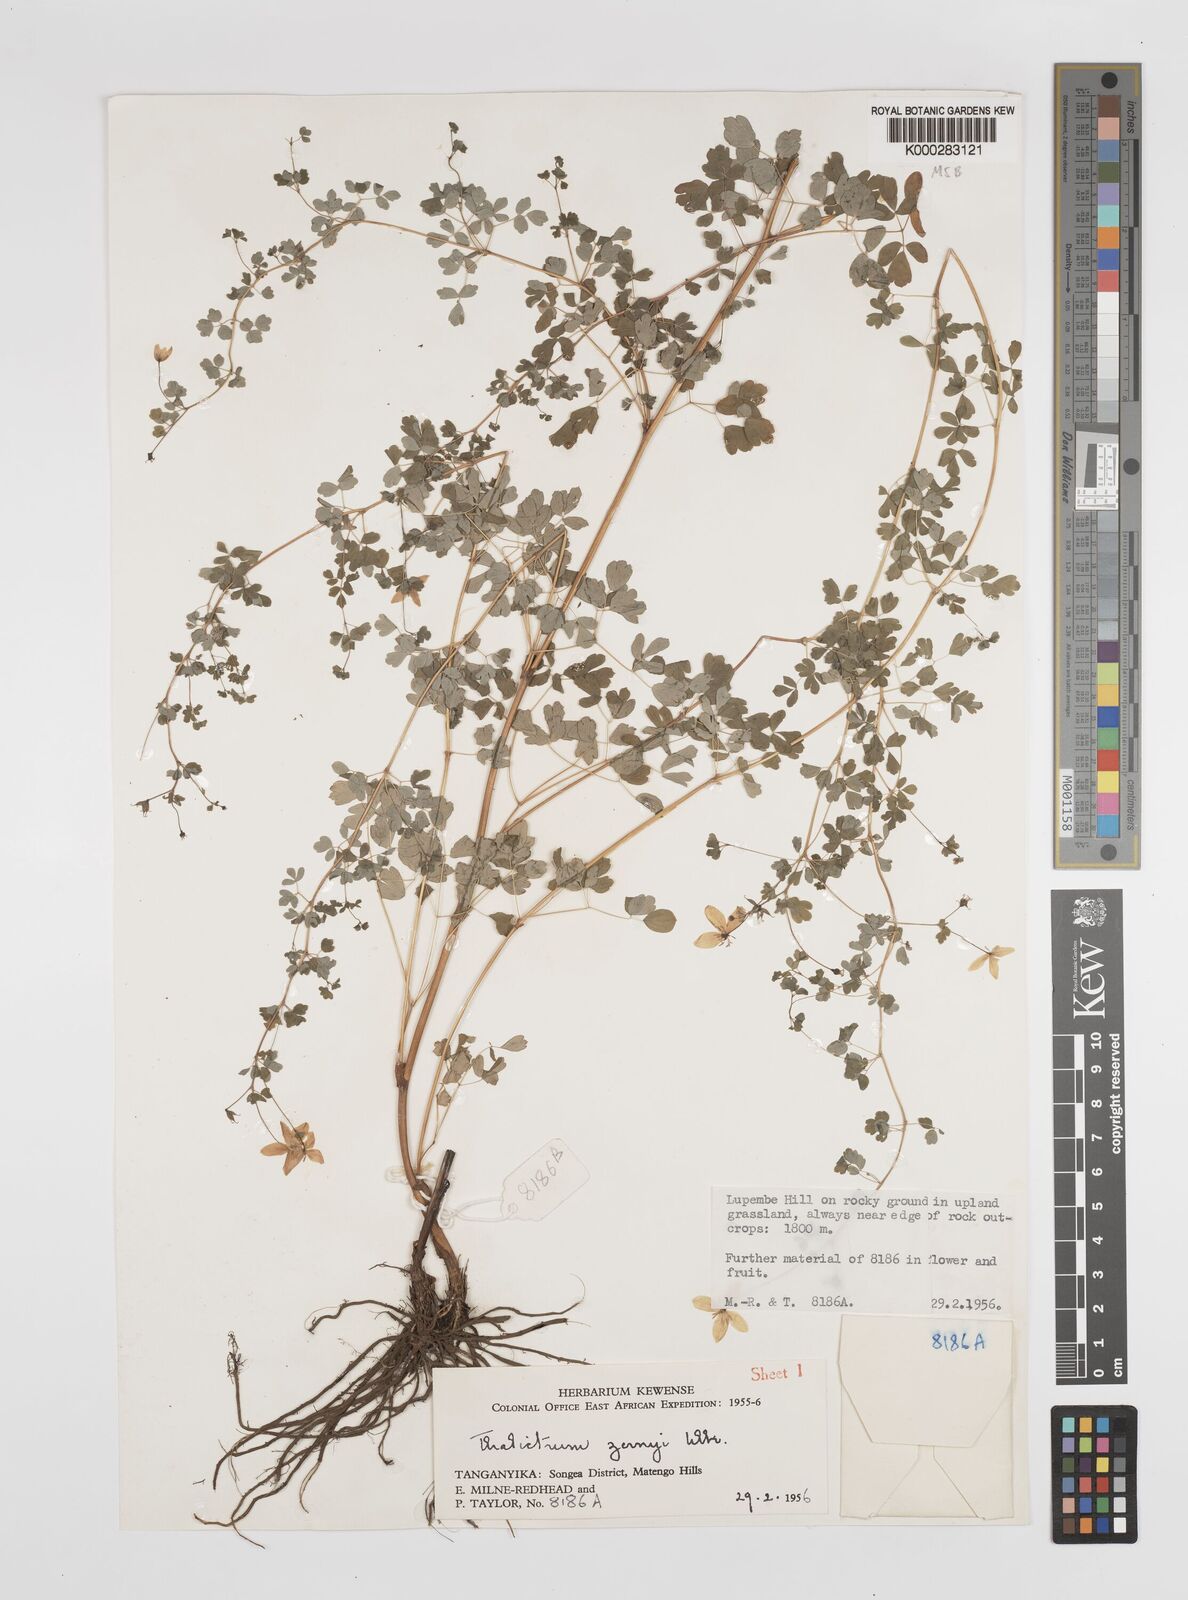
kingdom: Plantae
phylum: Tracheophyta
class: Magnoliopsida
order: Ranunculales
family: Ranunculaceae
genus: Thalictrum
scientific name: Thalictrum zernyi
